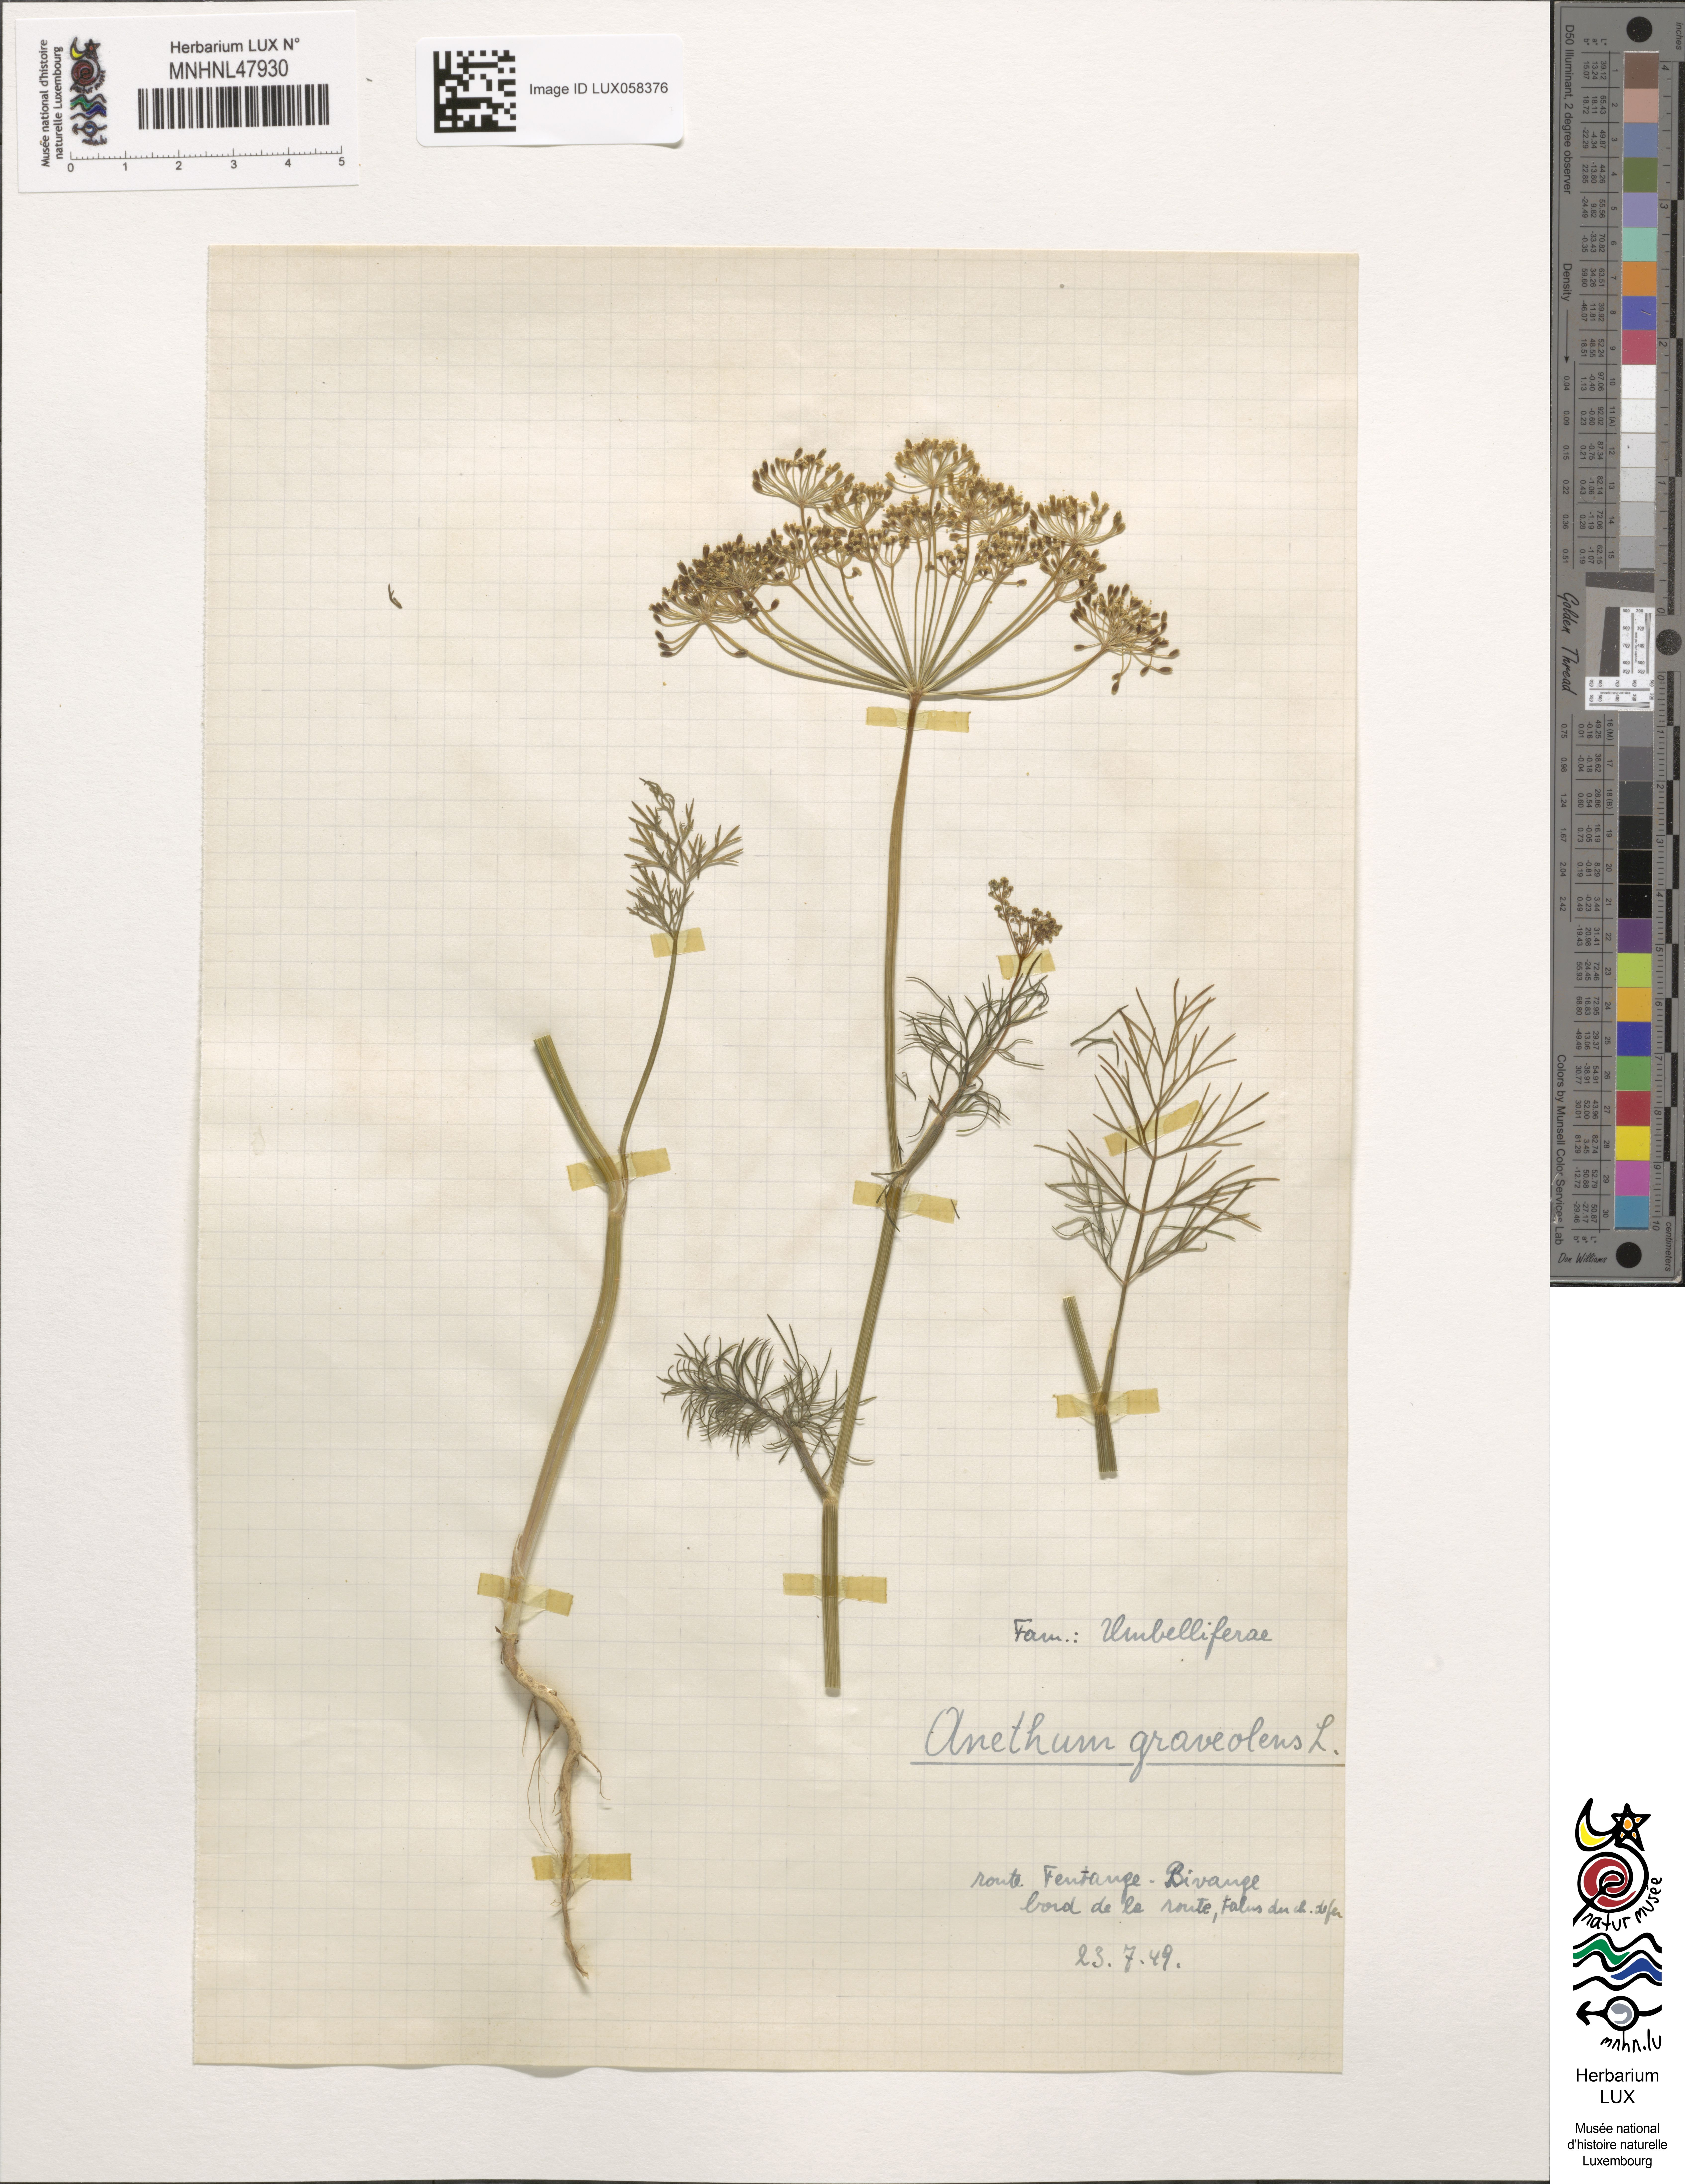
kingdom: Plantae
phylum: Tracheophyta
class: Magnoliopsida
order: Apiales
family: Apiaceae
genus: Anethum
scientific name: Anethum graveolens
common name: Dill
